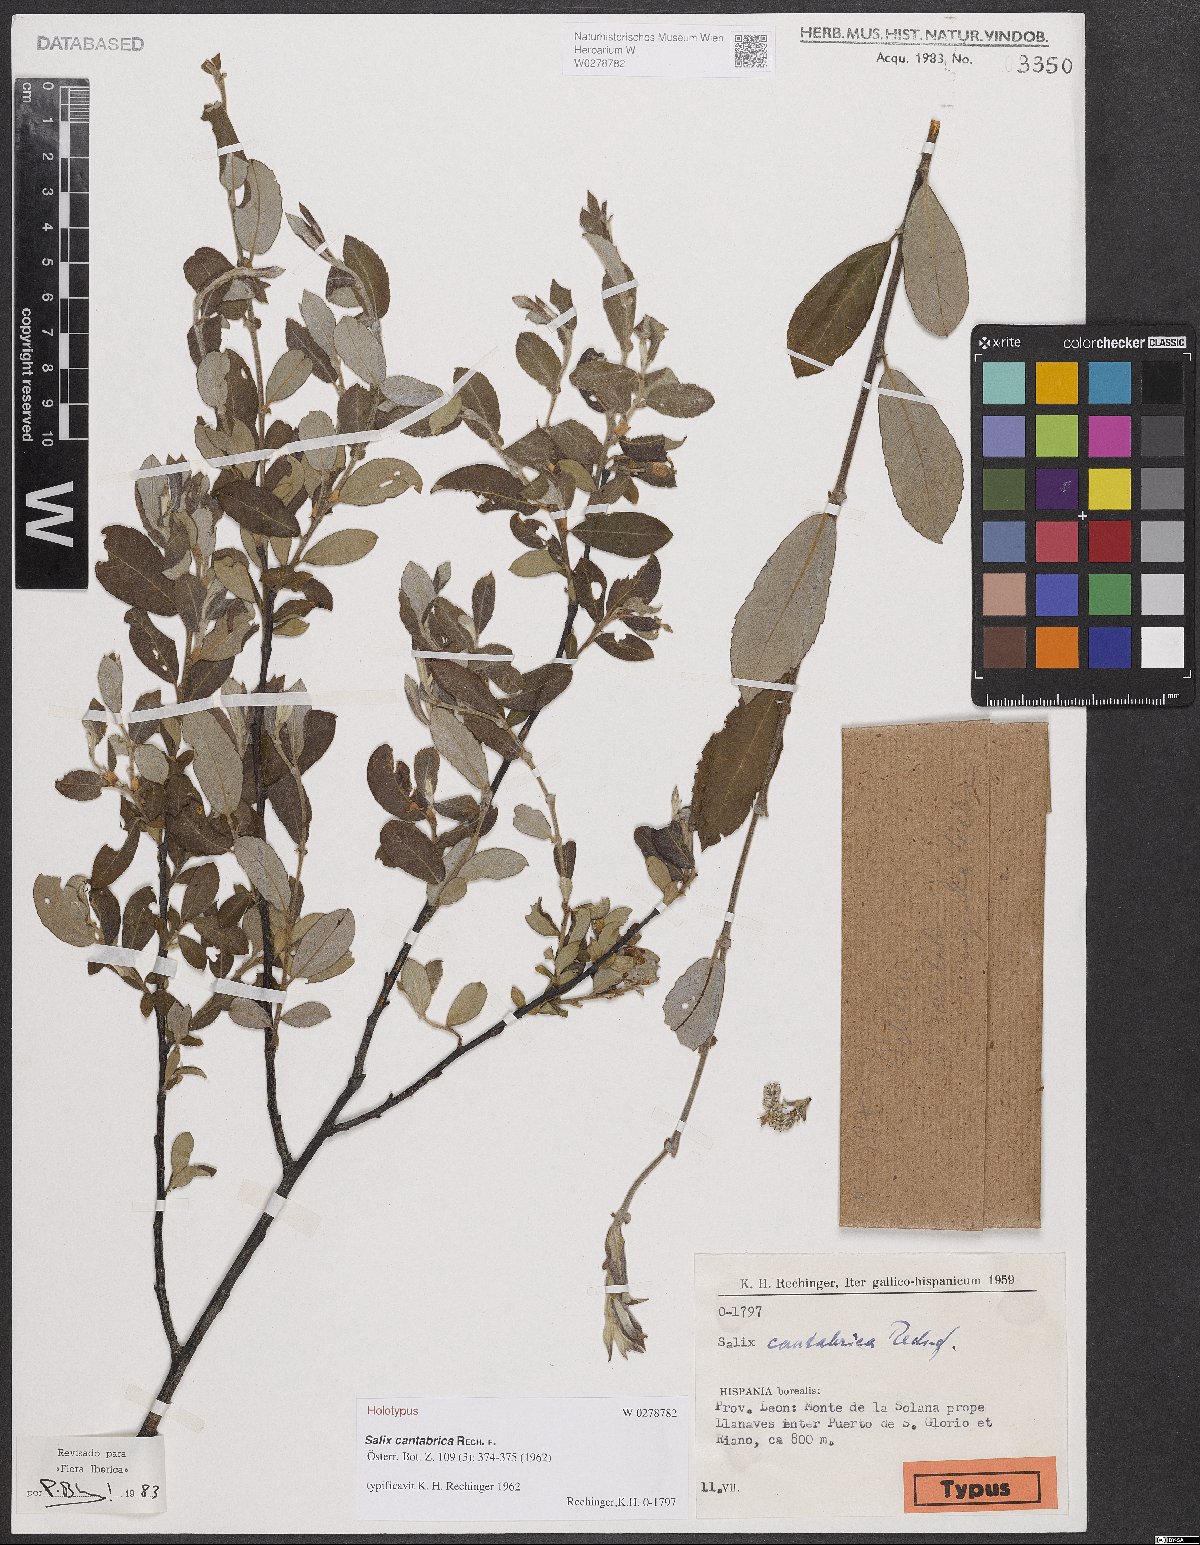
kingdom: Plantae
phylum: Tracheophyta
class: Magnoliopsida
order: Malpighiales
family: Salicaceae
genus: Salix
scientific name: Salix cantabrica
